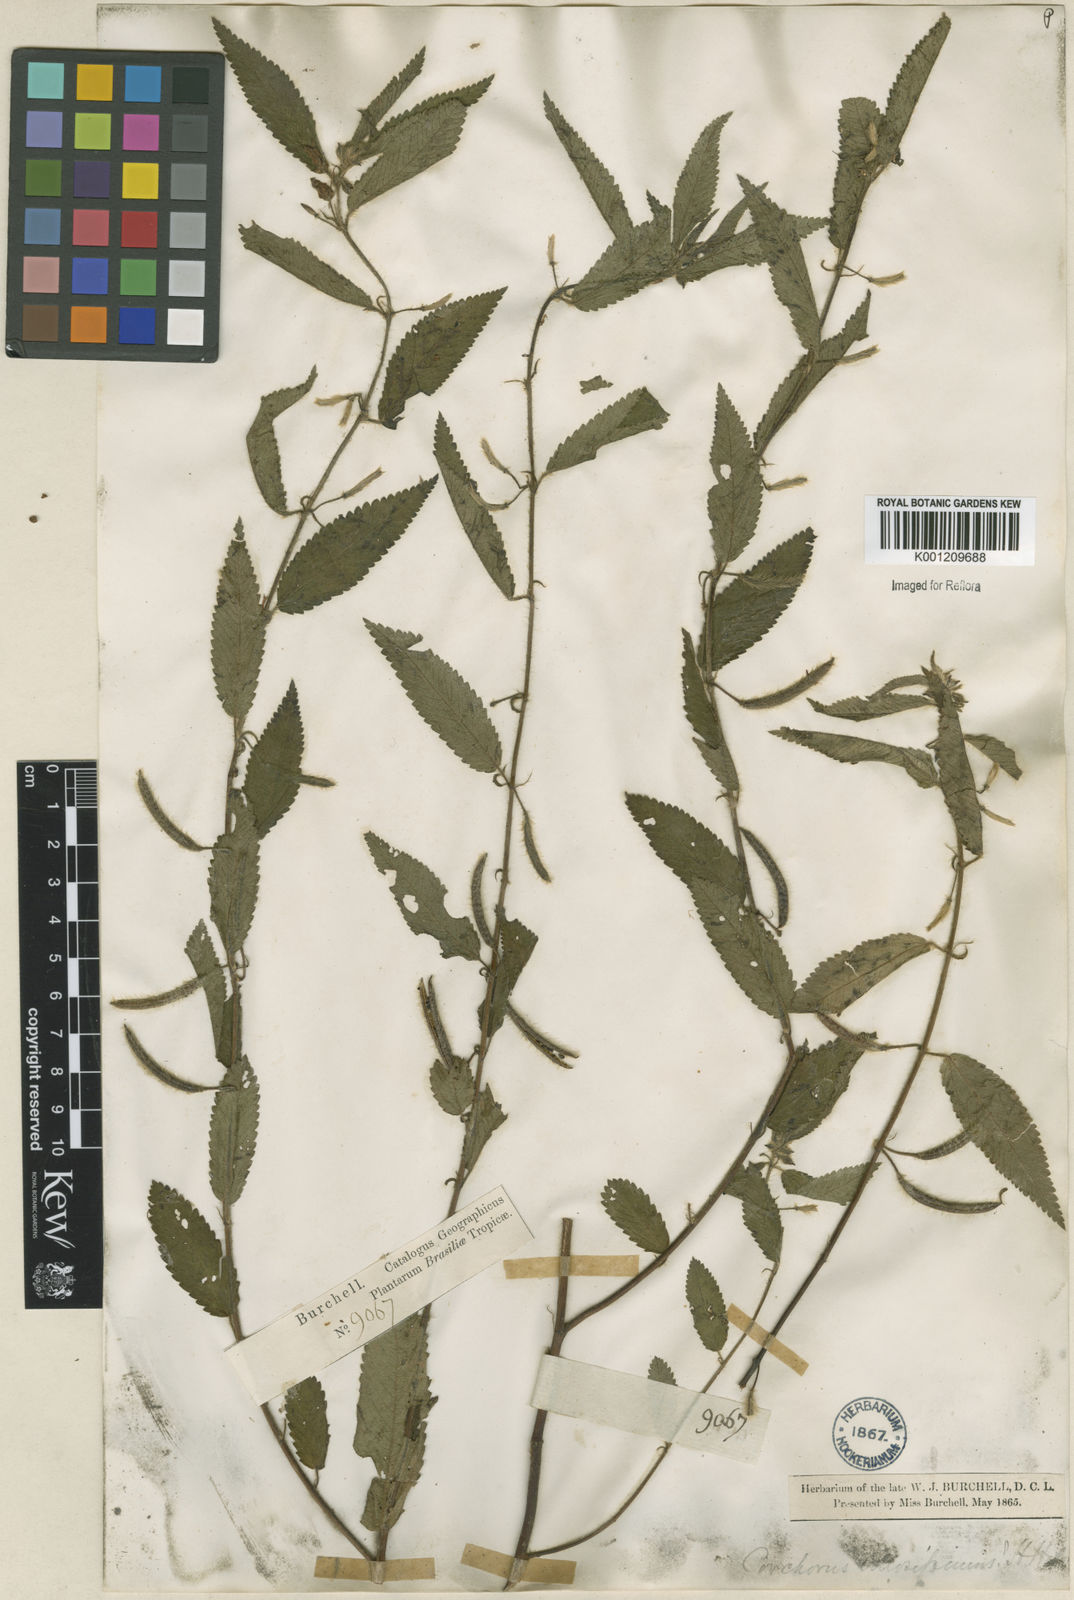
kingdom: Plantae
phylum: Tracheophyta
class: Magnoliopsida
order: Malvales
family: Malvaceae
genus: Corchorus
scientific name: Corchorus hirtus
